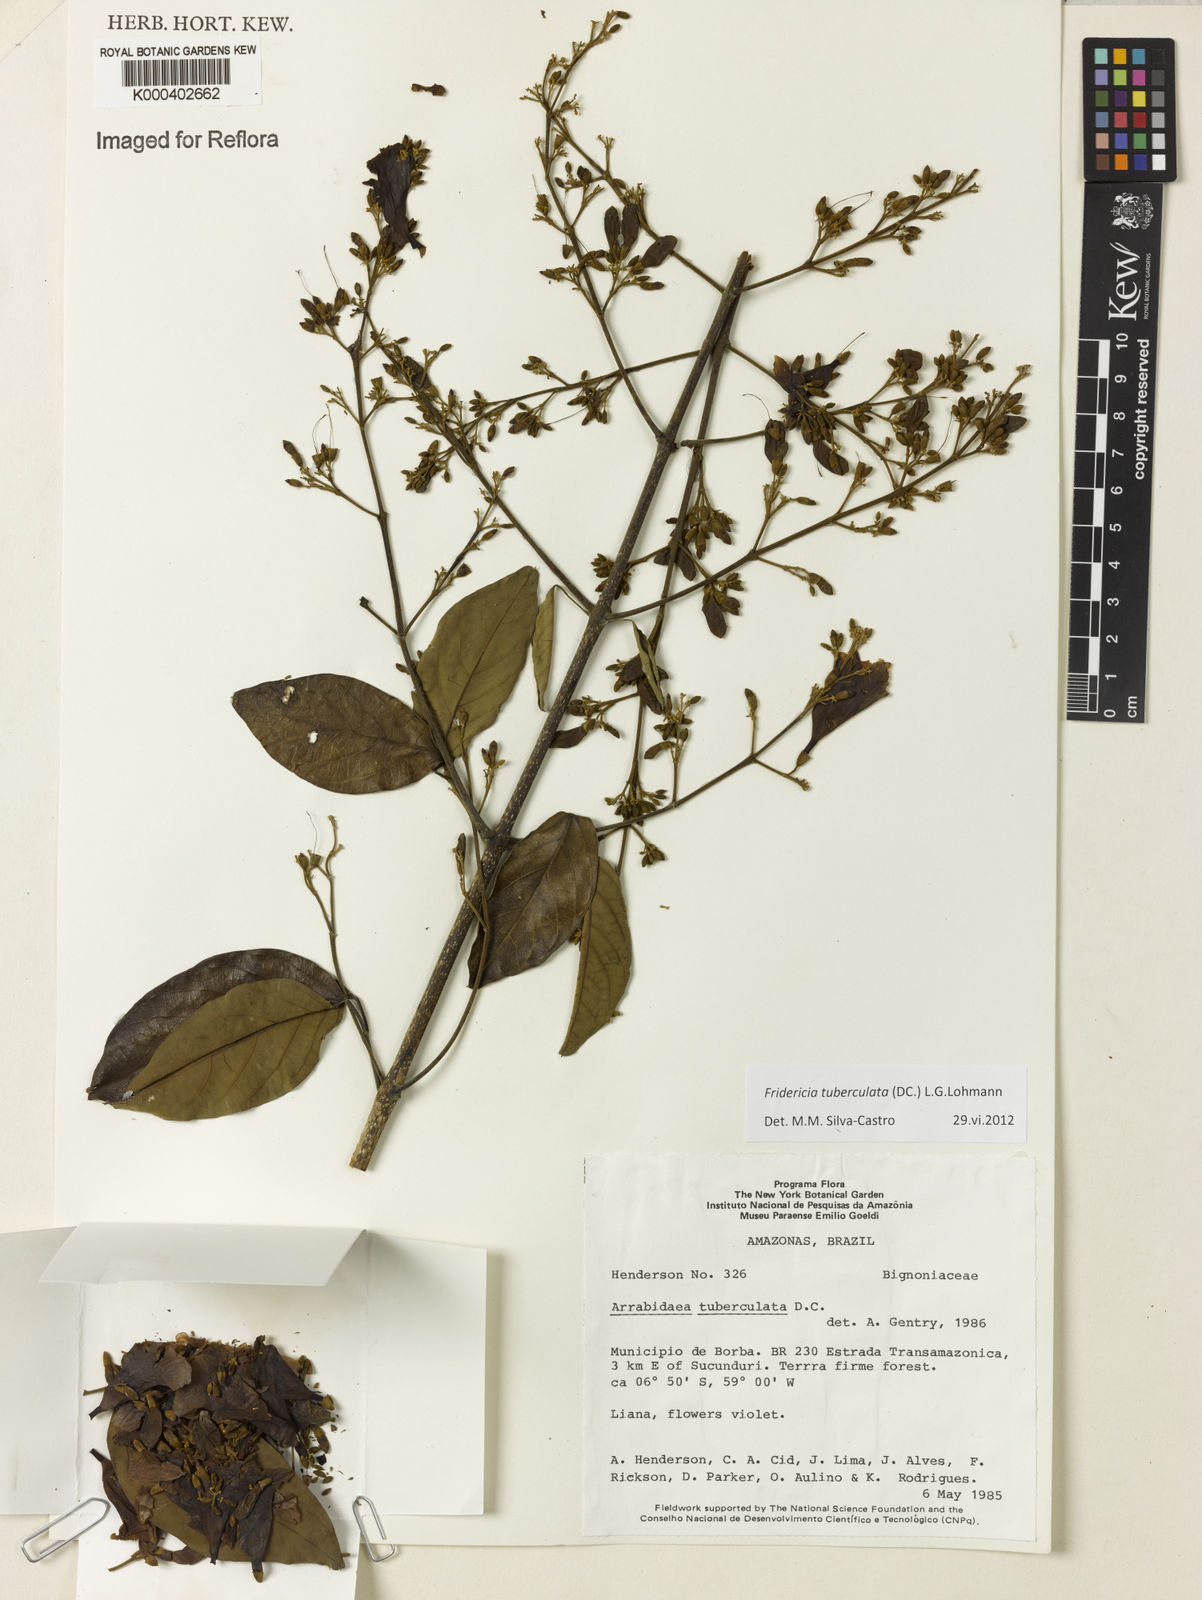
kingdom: Plantae
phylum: Tracheophyta
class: Magnoliopsida
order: Lamiales
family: Bignoniaceae
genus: Fridericia
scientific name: Fridericia tuberculata
